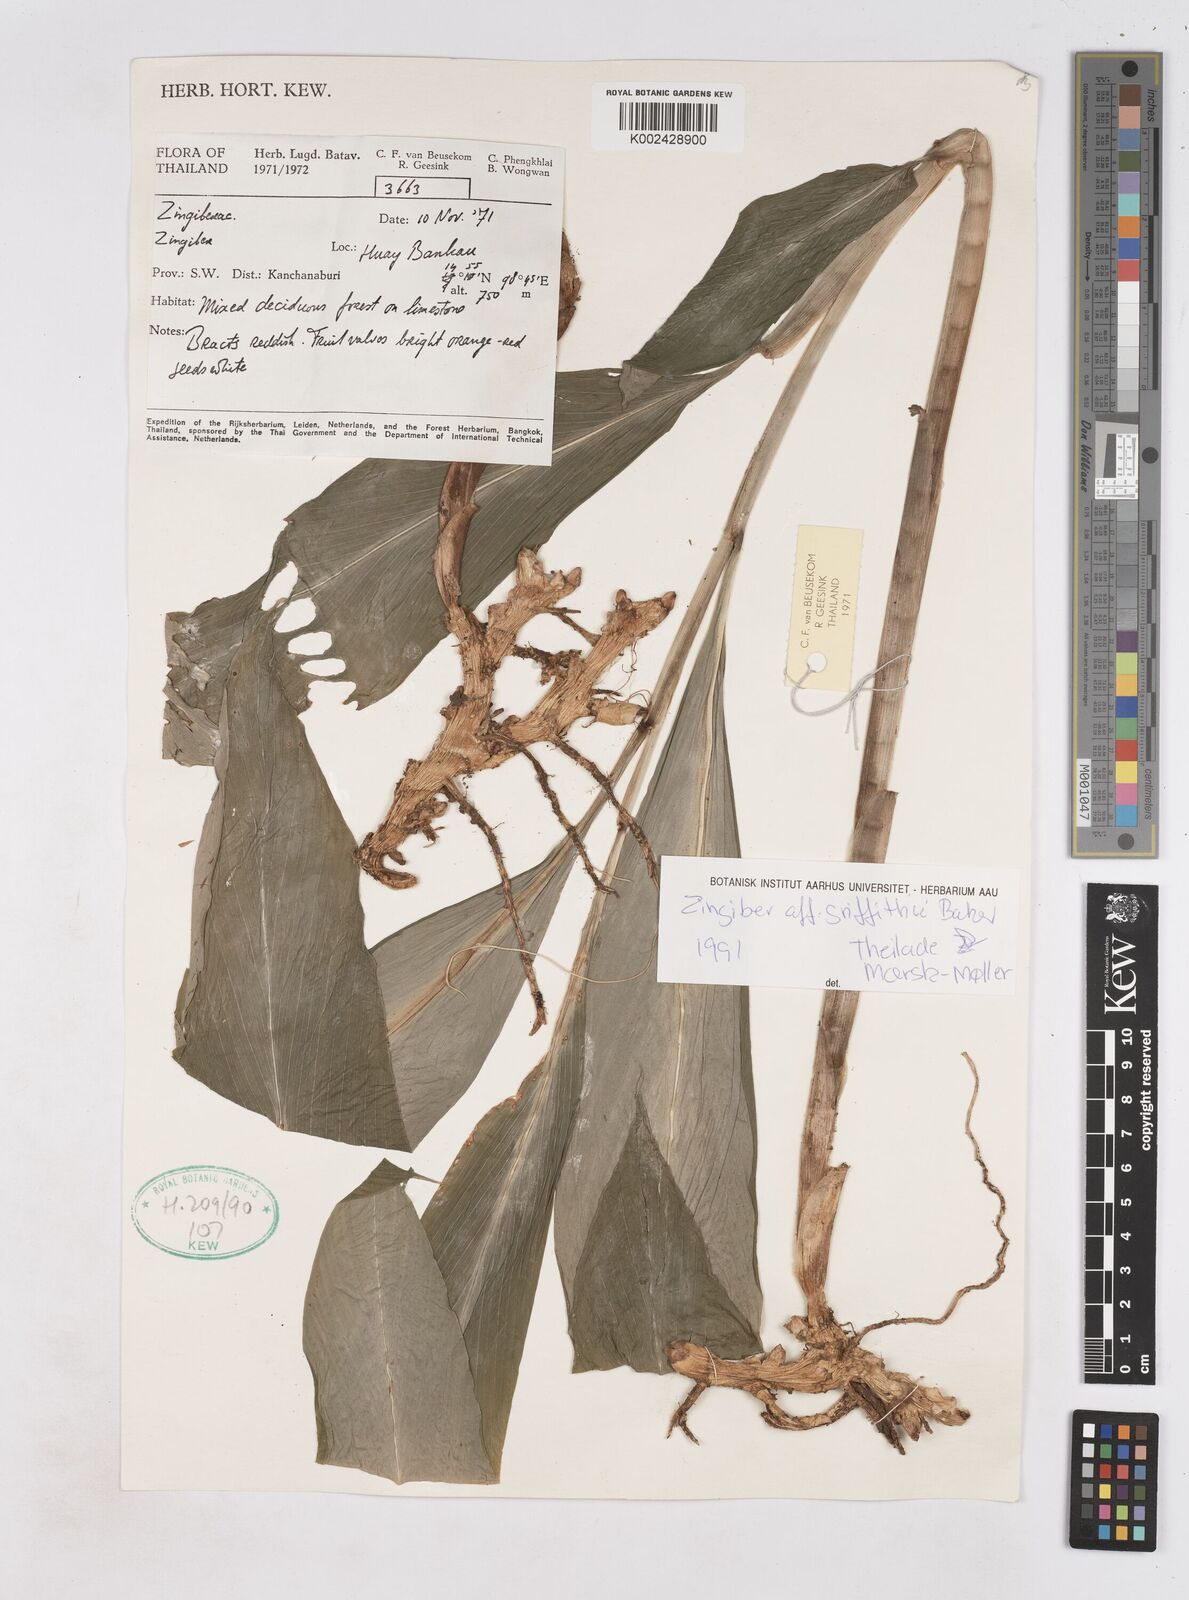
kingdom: Plantae
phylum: Tracheophyta
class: Liliopsida
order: Zingiberales
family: Zingiberaceae
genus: Zingiber
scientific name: Zingiber griffithii
